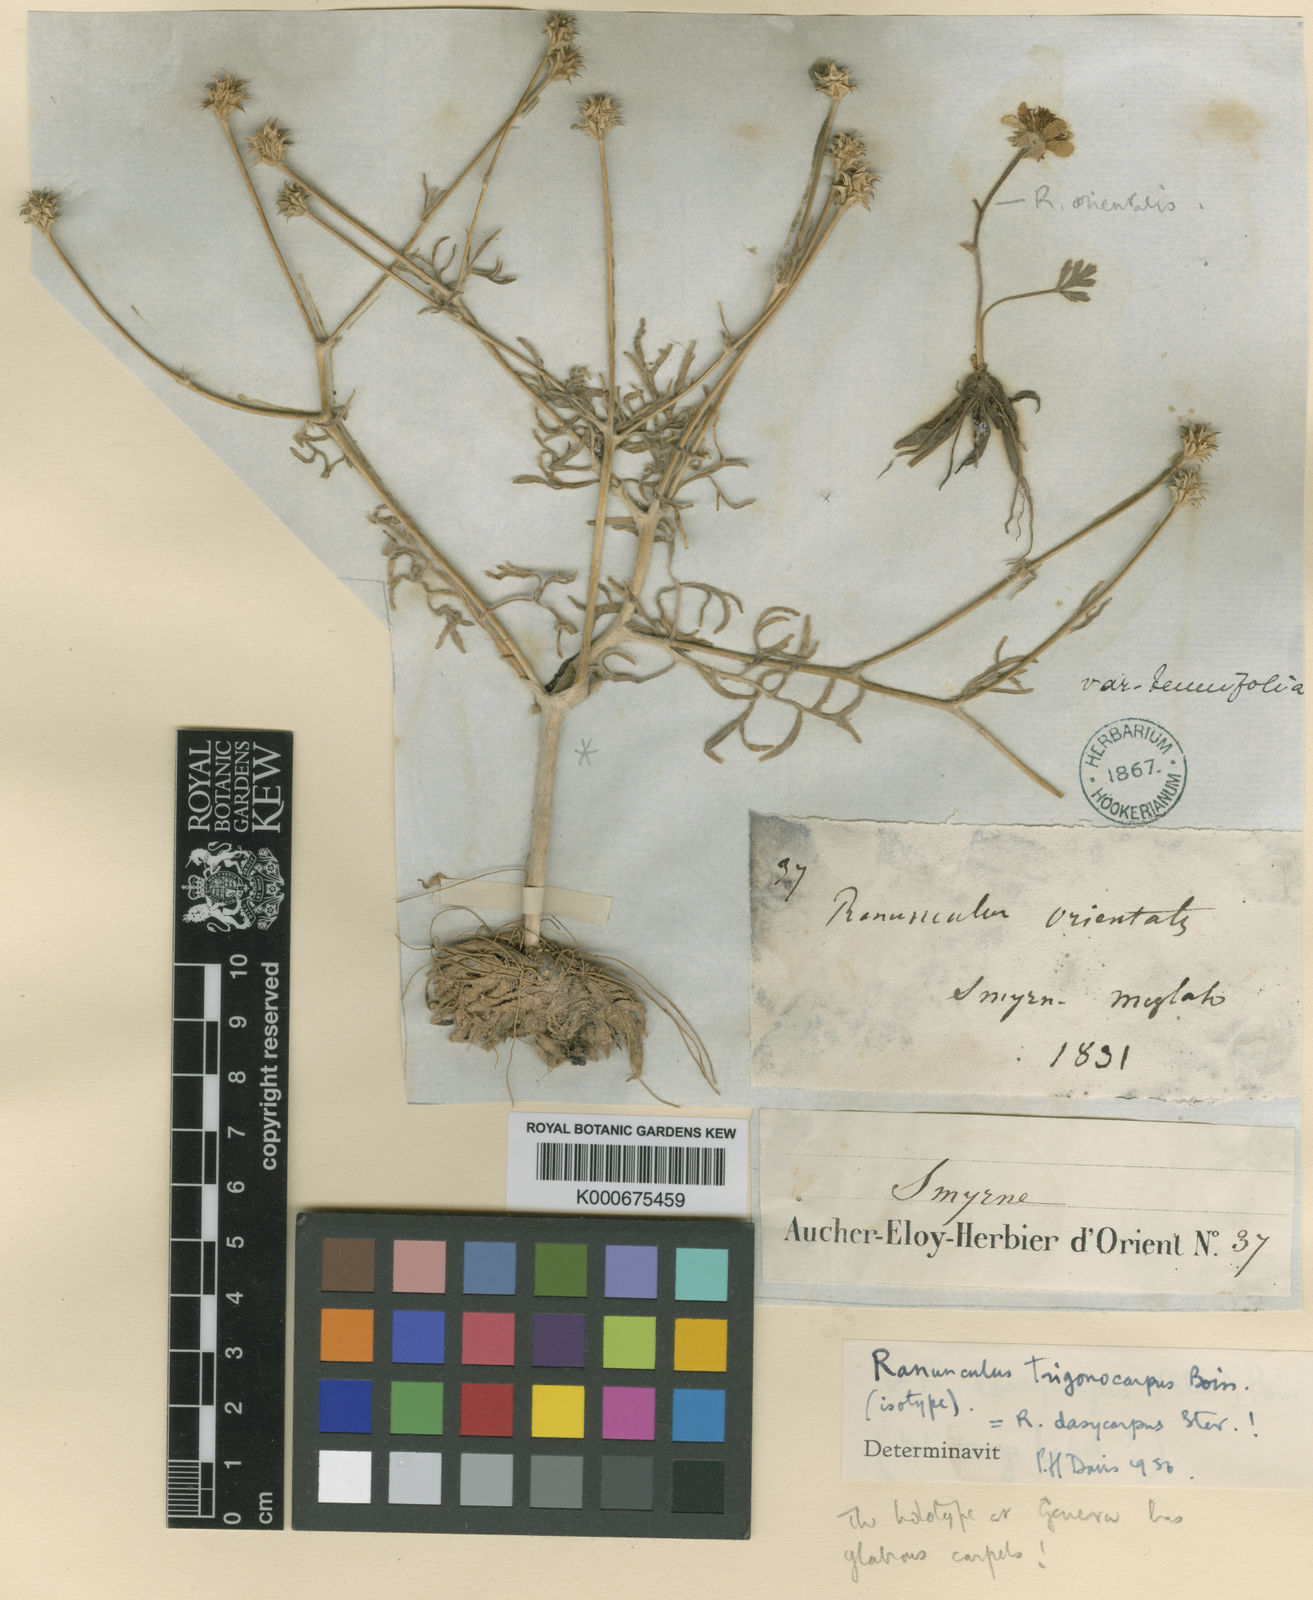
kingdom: Plantae
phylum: Tracheophyta
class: Magnoliopsida
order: Ranunculales
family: Ranunculaceae
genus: Ranunculus
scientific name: Ranunculus macrorrhynchus
